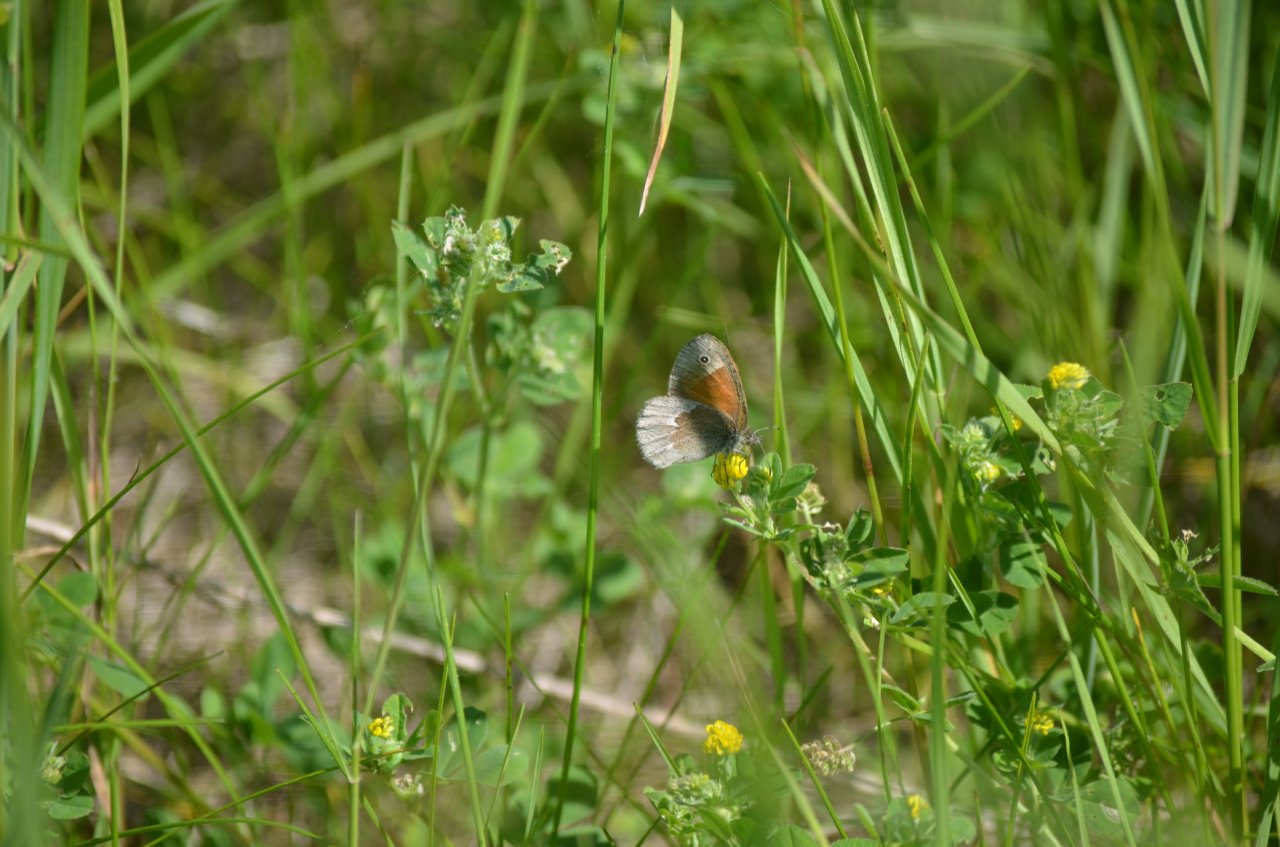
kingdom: Animalia
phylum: Arthropoda
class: Insecta
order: Lepidoptera
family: Nymphalidae
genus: Coenonympha
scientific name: Coenonympha tullia
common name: Large Heath
